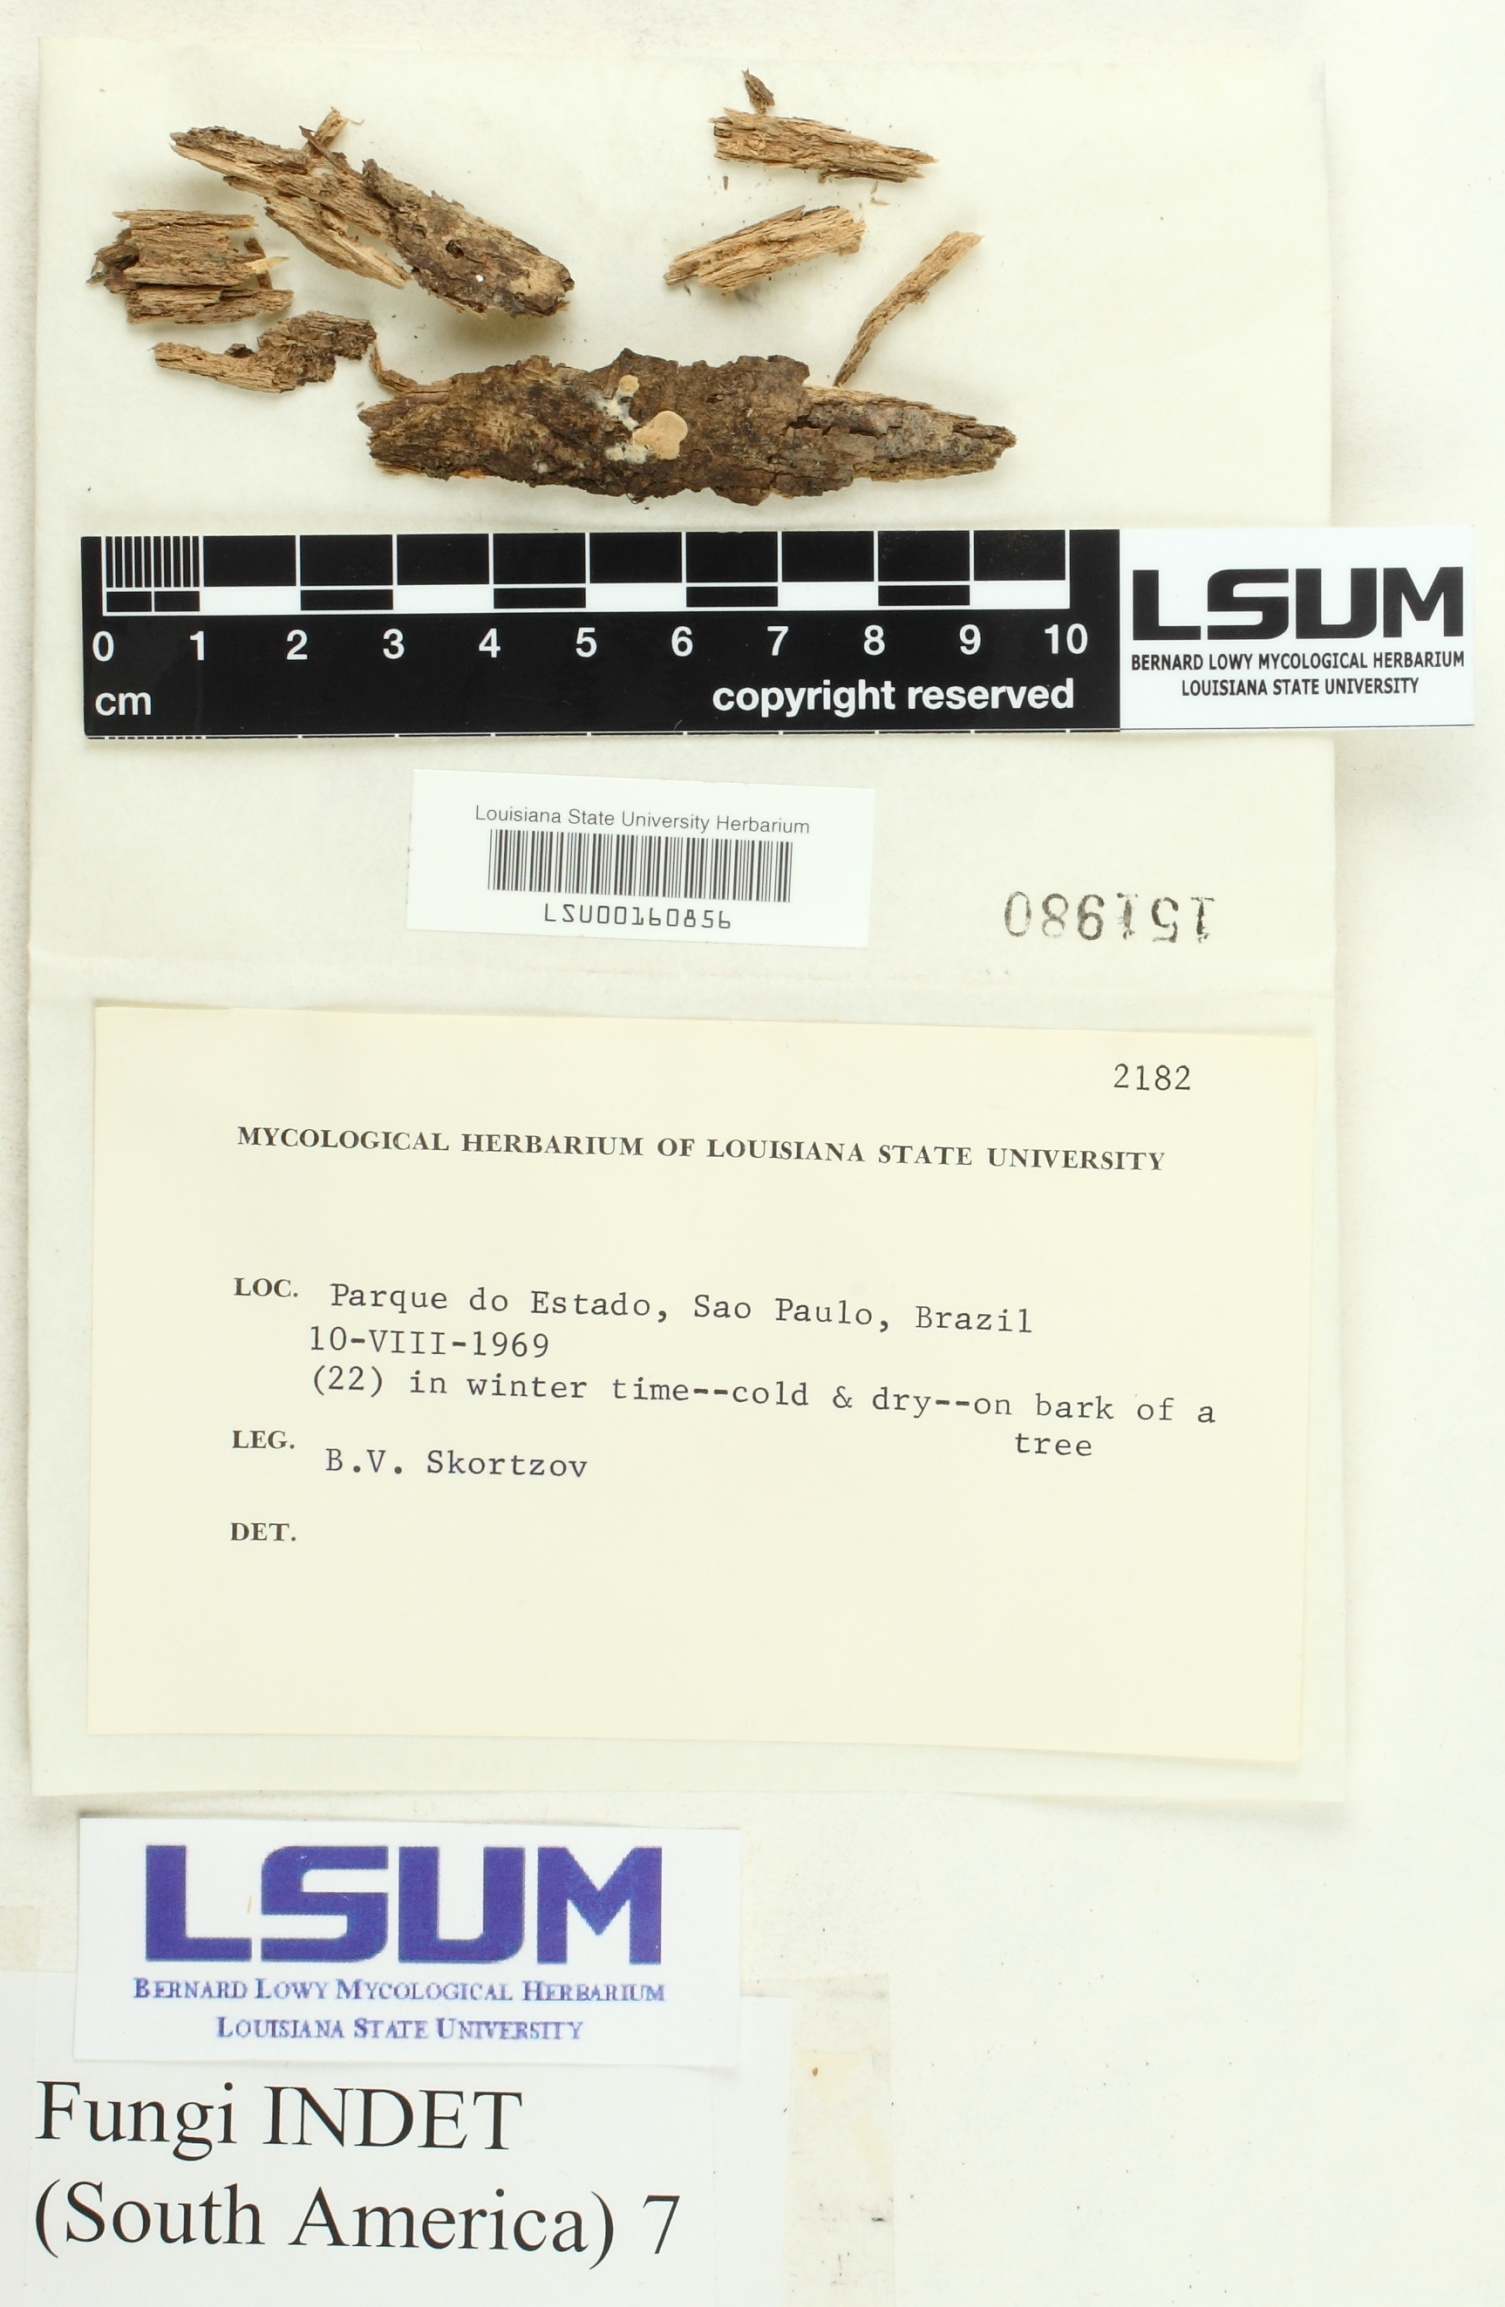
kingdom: Fungi
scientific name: Fungi
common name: Fungi
